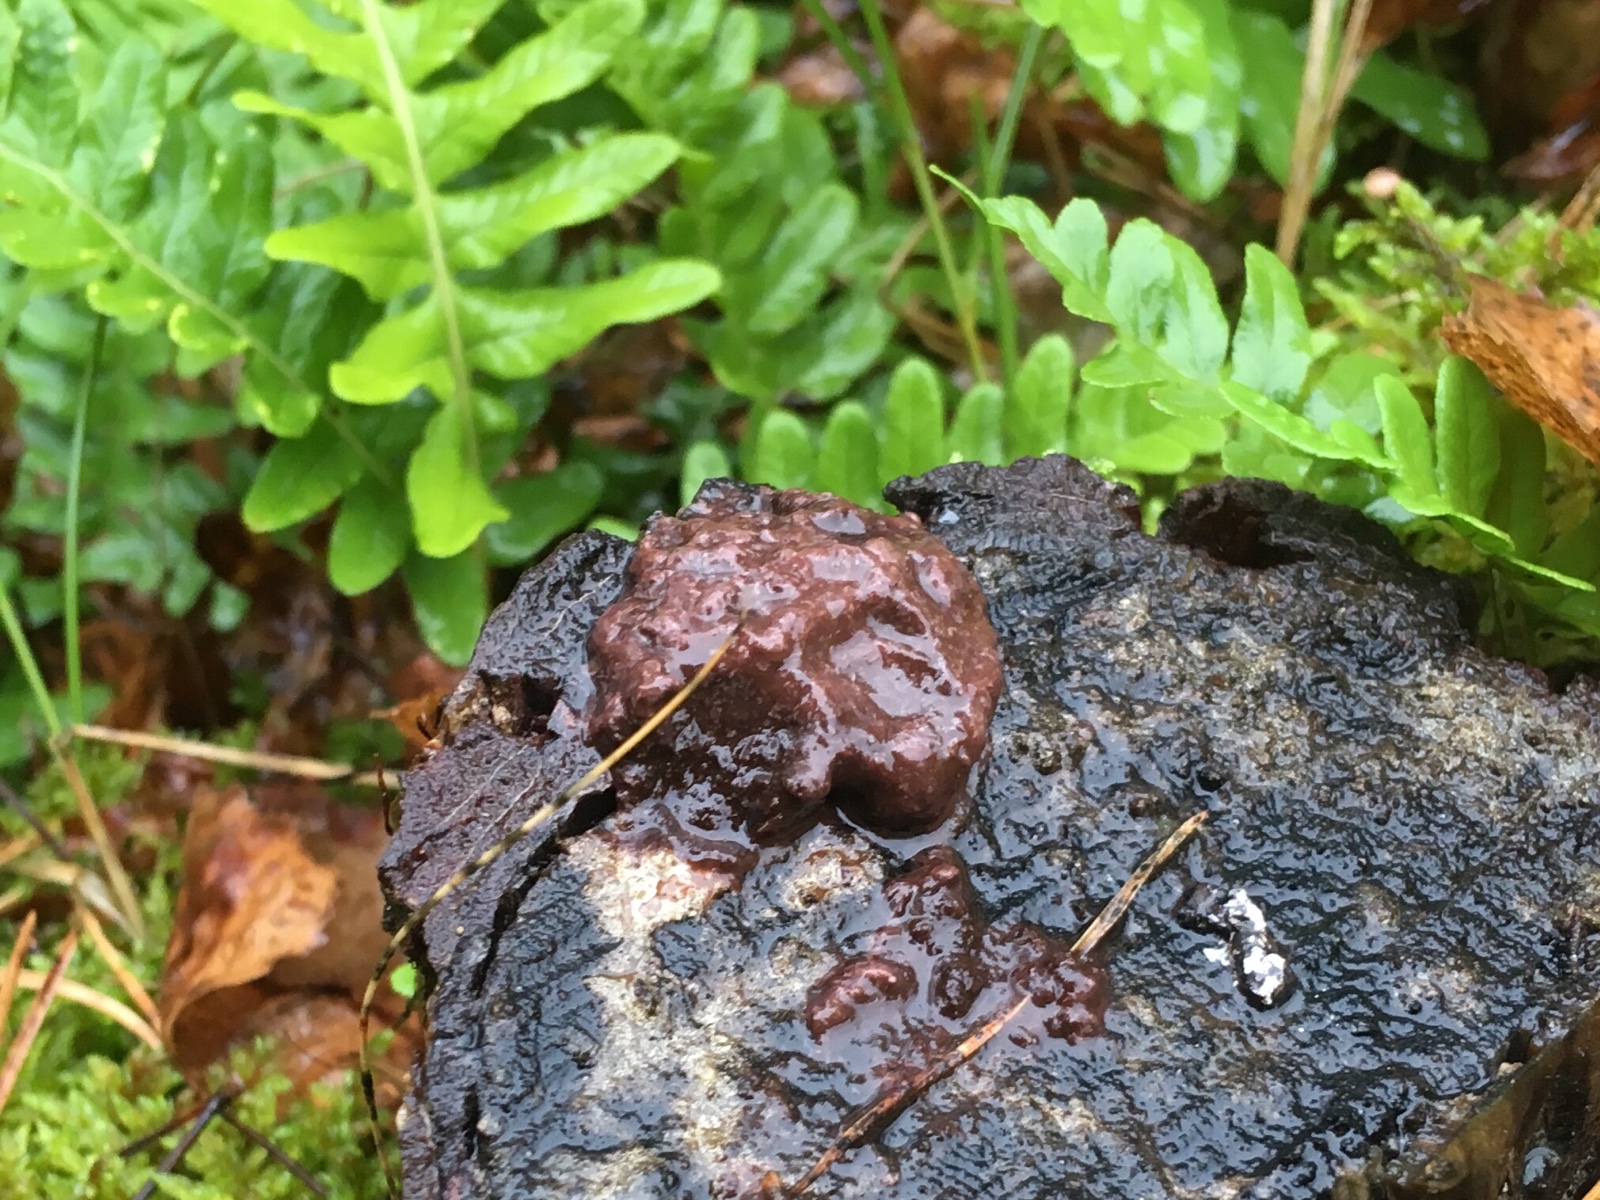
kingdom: Protozoa
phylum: Mycetozoa
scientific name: Mycetozoa
